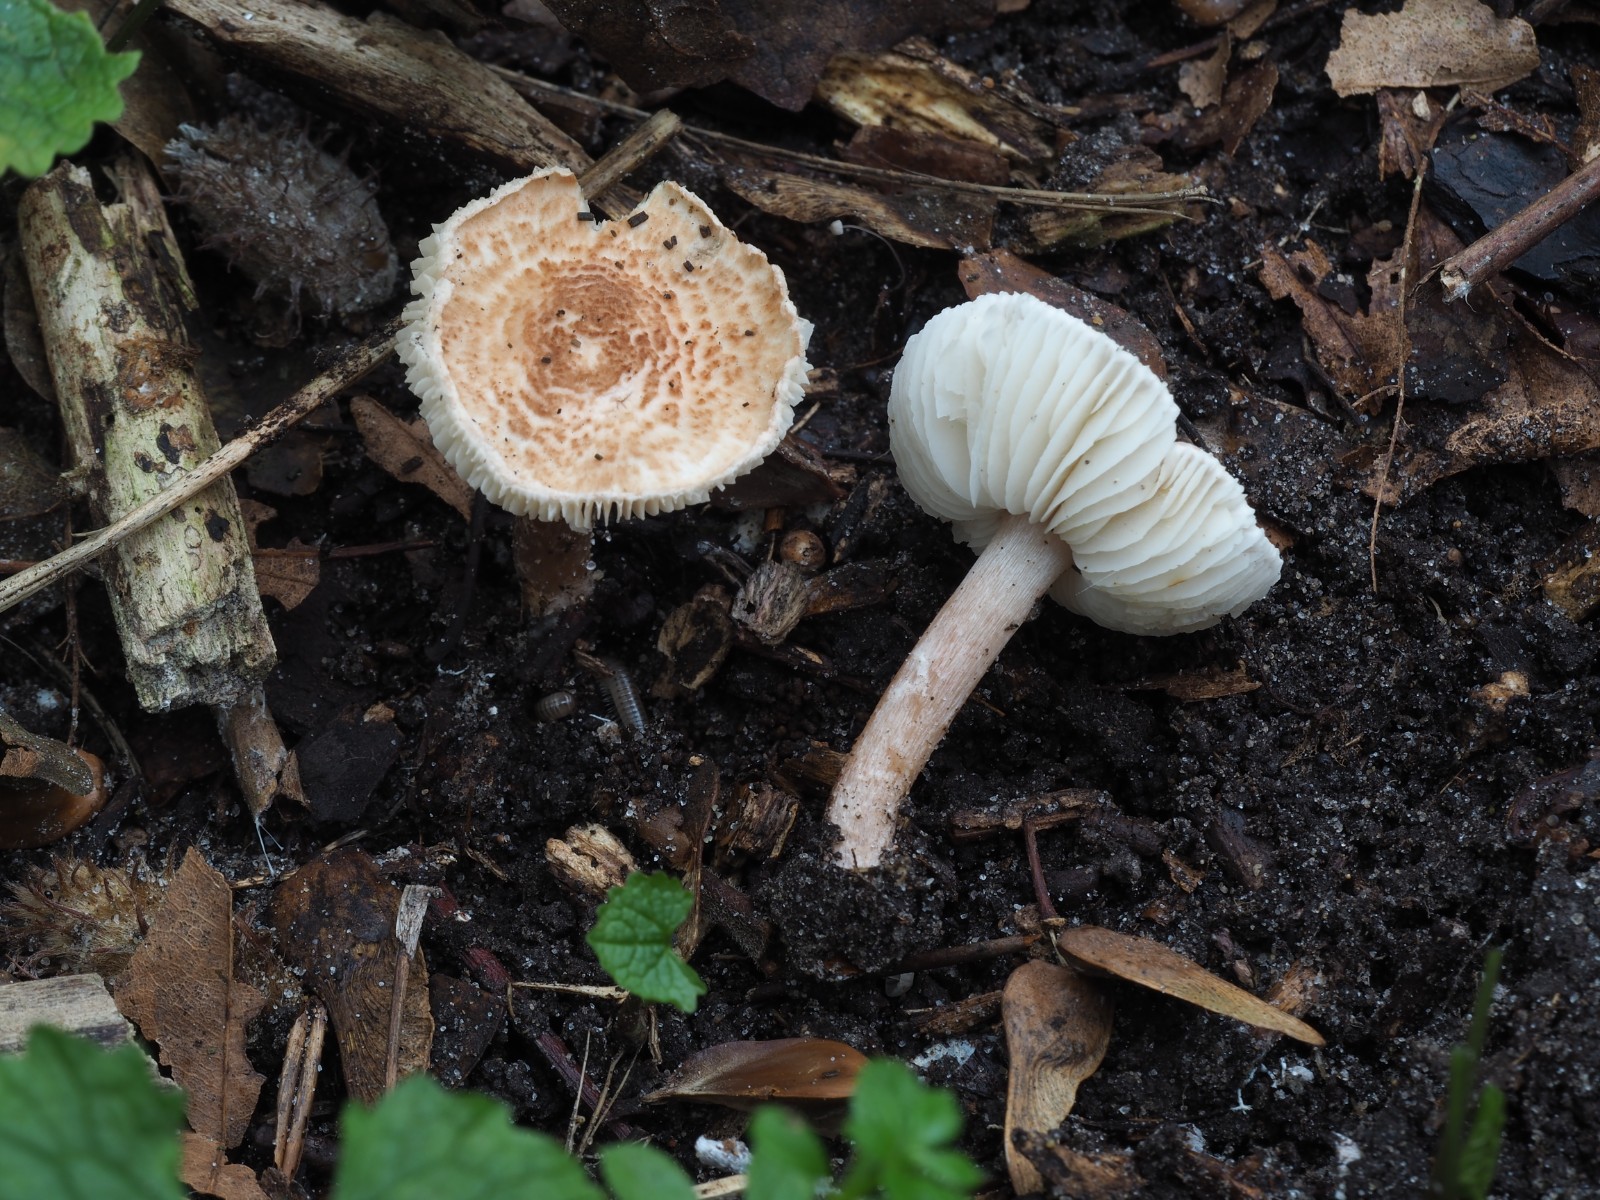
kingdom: Fungi
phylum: Basidiomycota
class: Agaricomycetes
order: Agaricales
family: Agaricaceae
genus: Lepiota
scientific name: Lepiota subincarnata
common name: kødfarvet parasolhat
